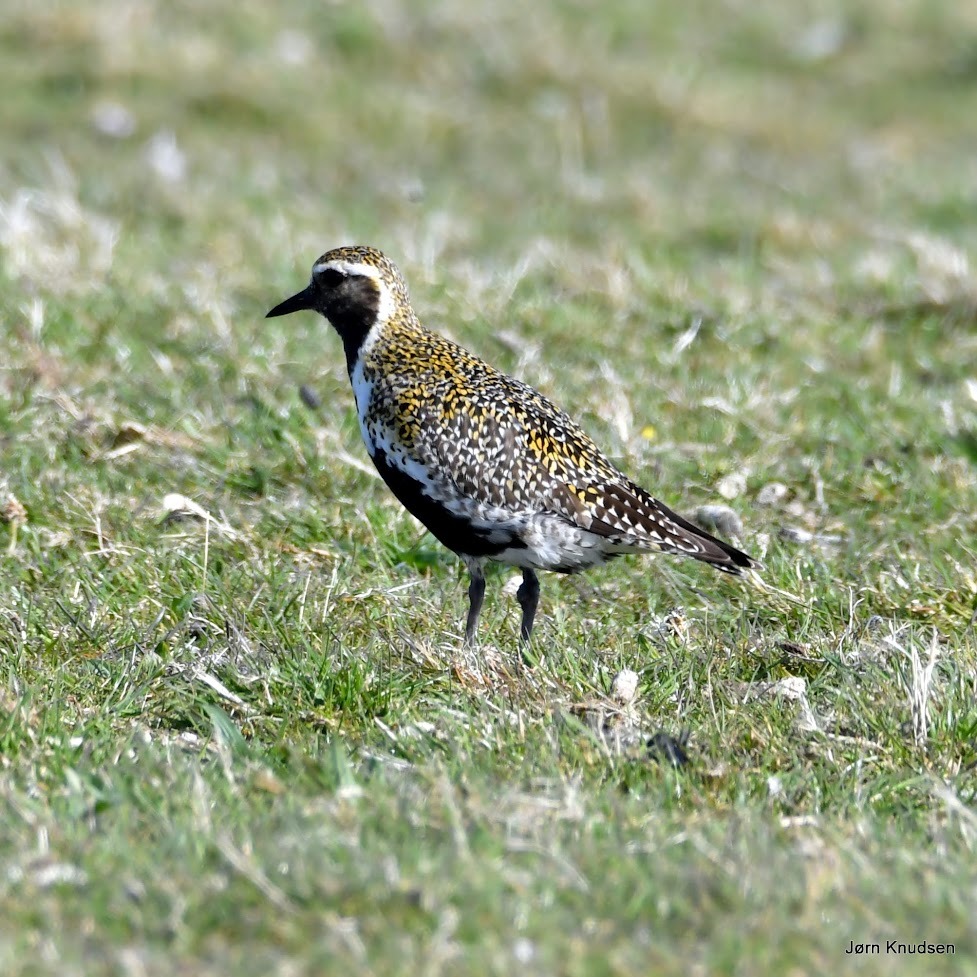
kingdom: Animalia
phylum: Chordata
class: Aves
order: Charadriiformes
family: Charadriidae
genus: Pluvialis
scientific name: Pluvialis apricaria
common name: Hjejle
